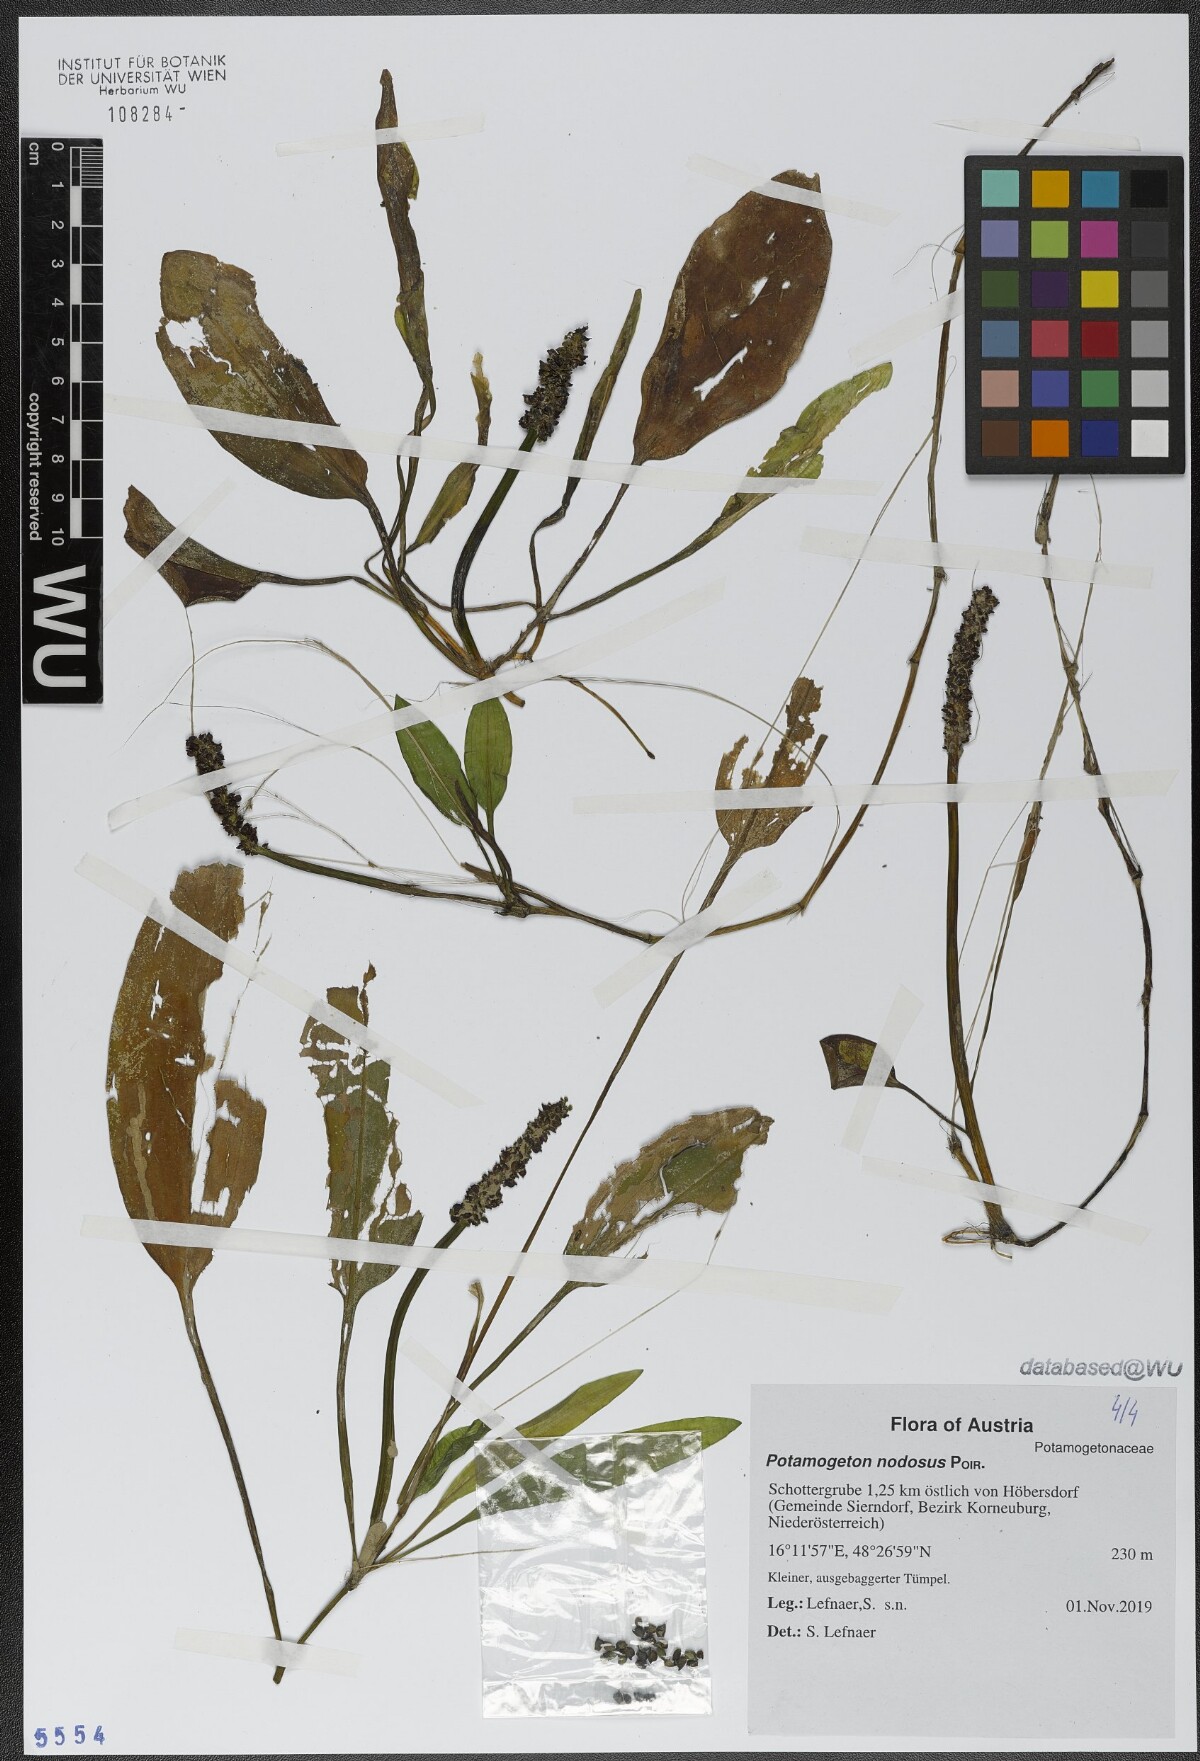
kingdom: Plantae
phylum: Tracheophyta
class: Liliopsida
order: Alismatales
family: Potamogetonaceae
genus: Potamogeton
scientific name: Potamogeton nodosus
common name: Loddon pondweed
